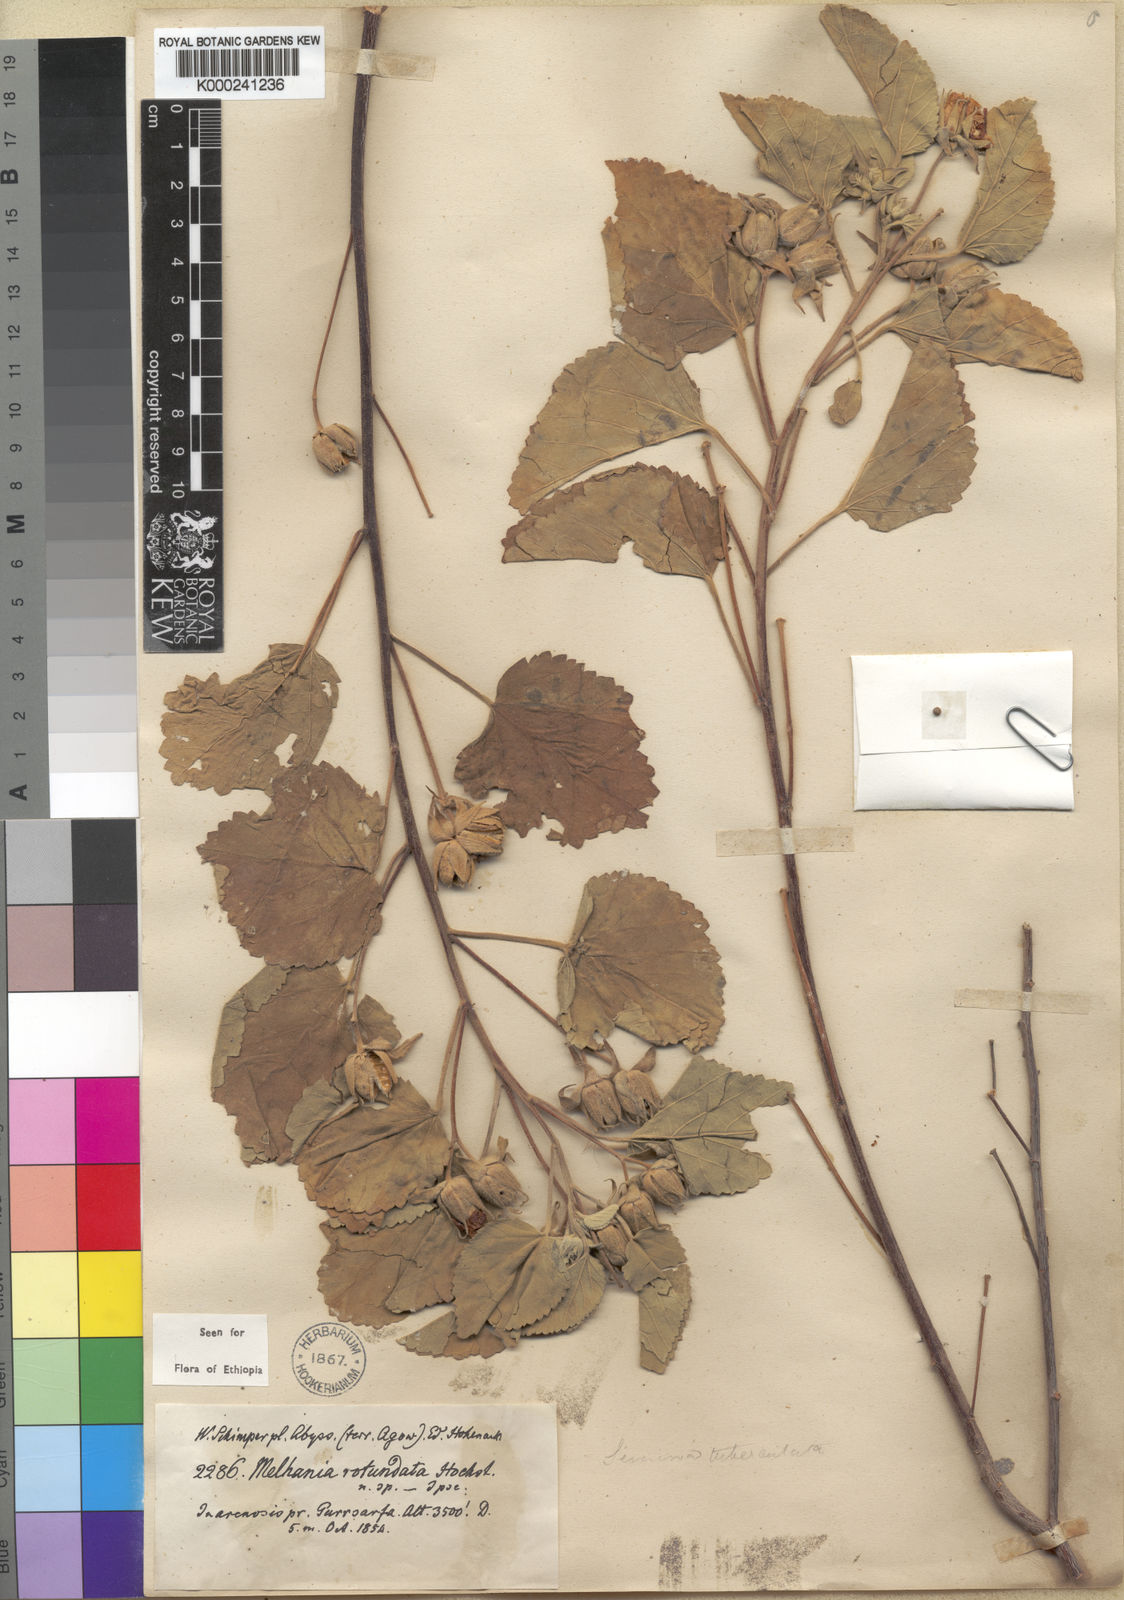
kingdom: Plantae
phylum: Tracheophyta
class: Magnoliopsida
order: Malvales
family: Malvaceae
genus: Melhania
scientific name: Melhania rotundata
